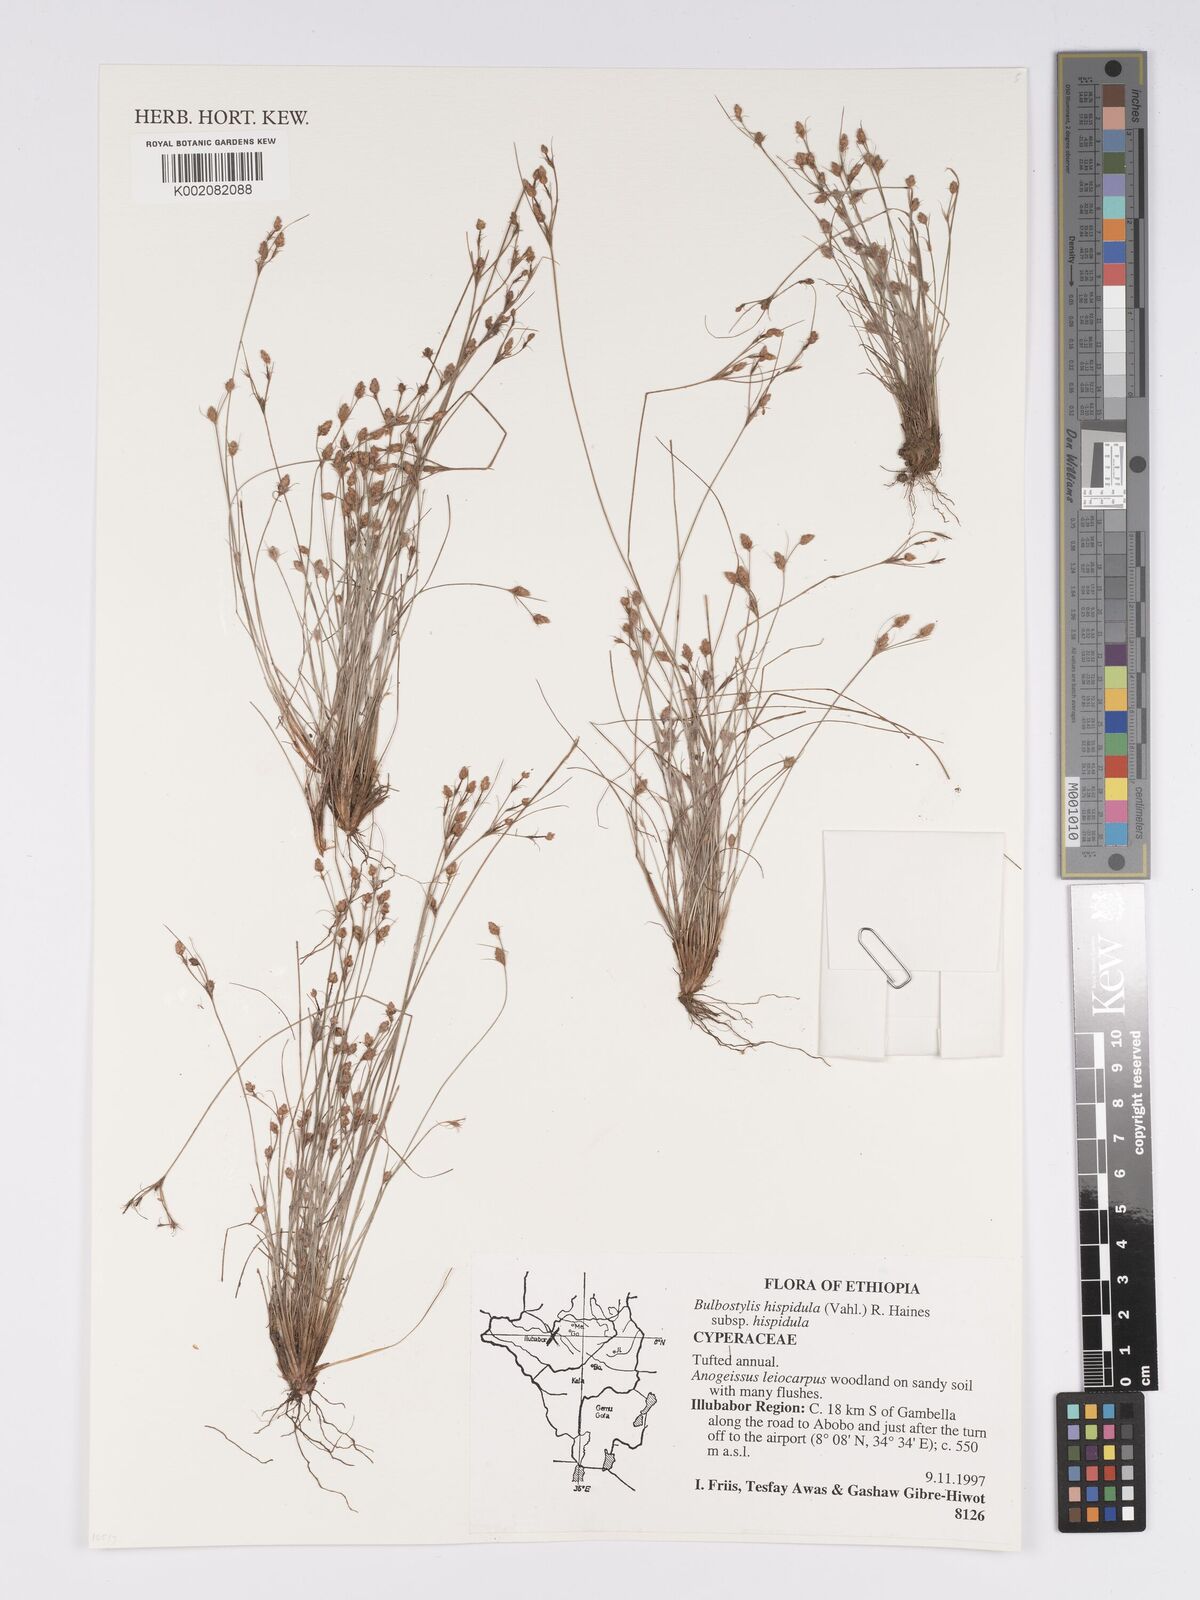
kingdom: Plantae
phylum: Tracheophyta
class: Liliopsida
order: Poales
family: Cyperaceae
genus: Bulbostylis
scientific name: Bulbostylis hispidula
